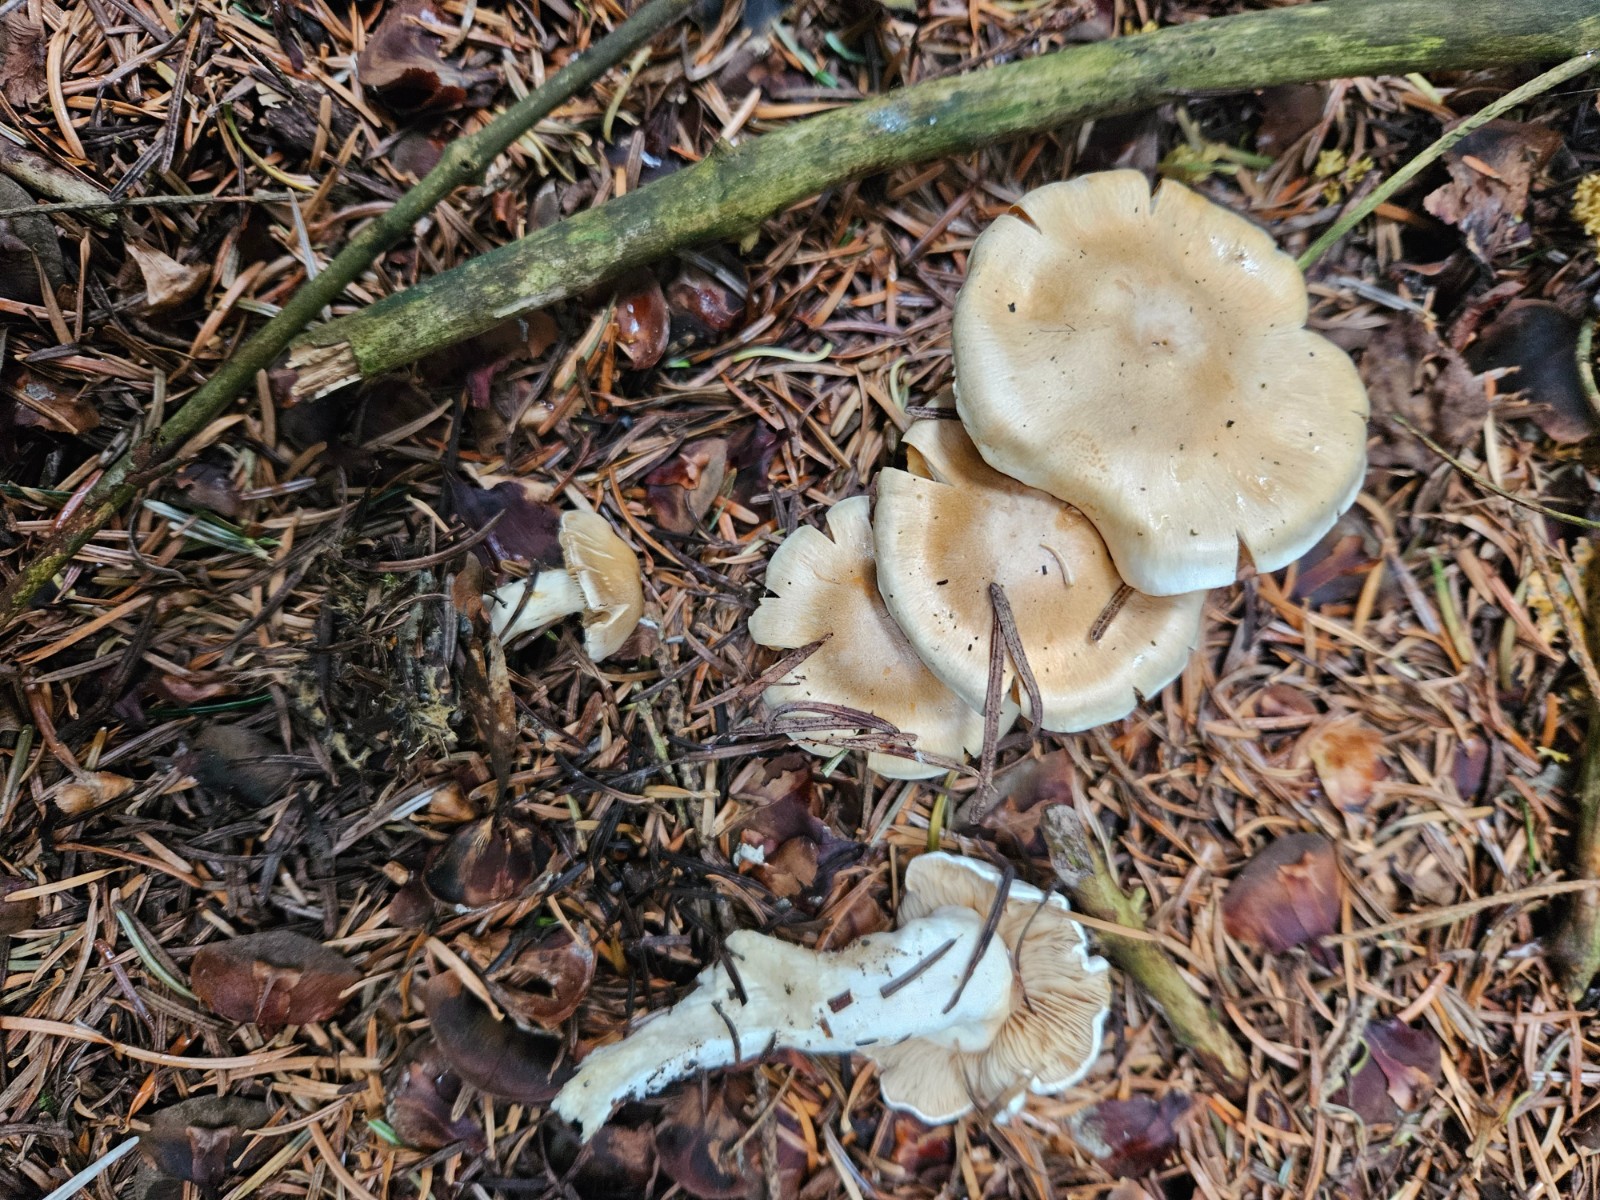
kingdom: Fungi
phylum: Basidiomycota
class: Agaricomycetes
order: Agaricales
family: Cortinariaceae
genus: Thaxterogaster
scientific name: Thaxterogaster leucoluteolus
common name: isabella slørhat
